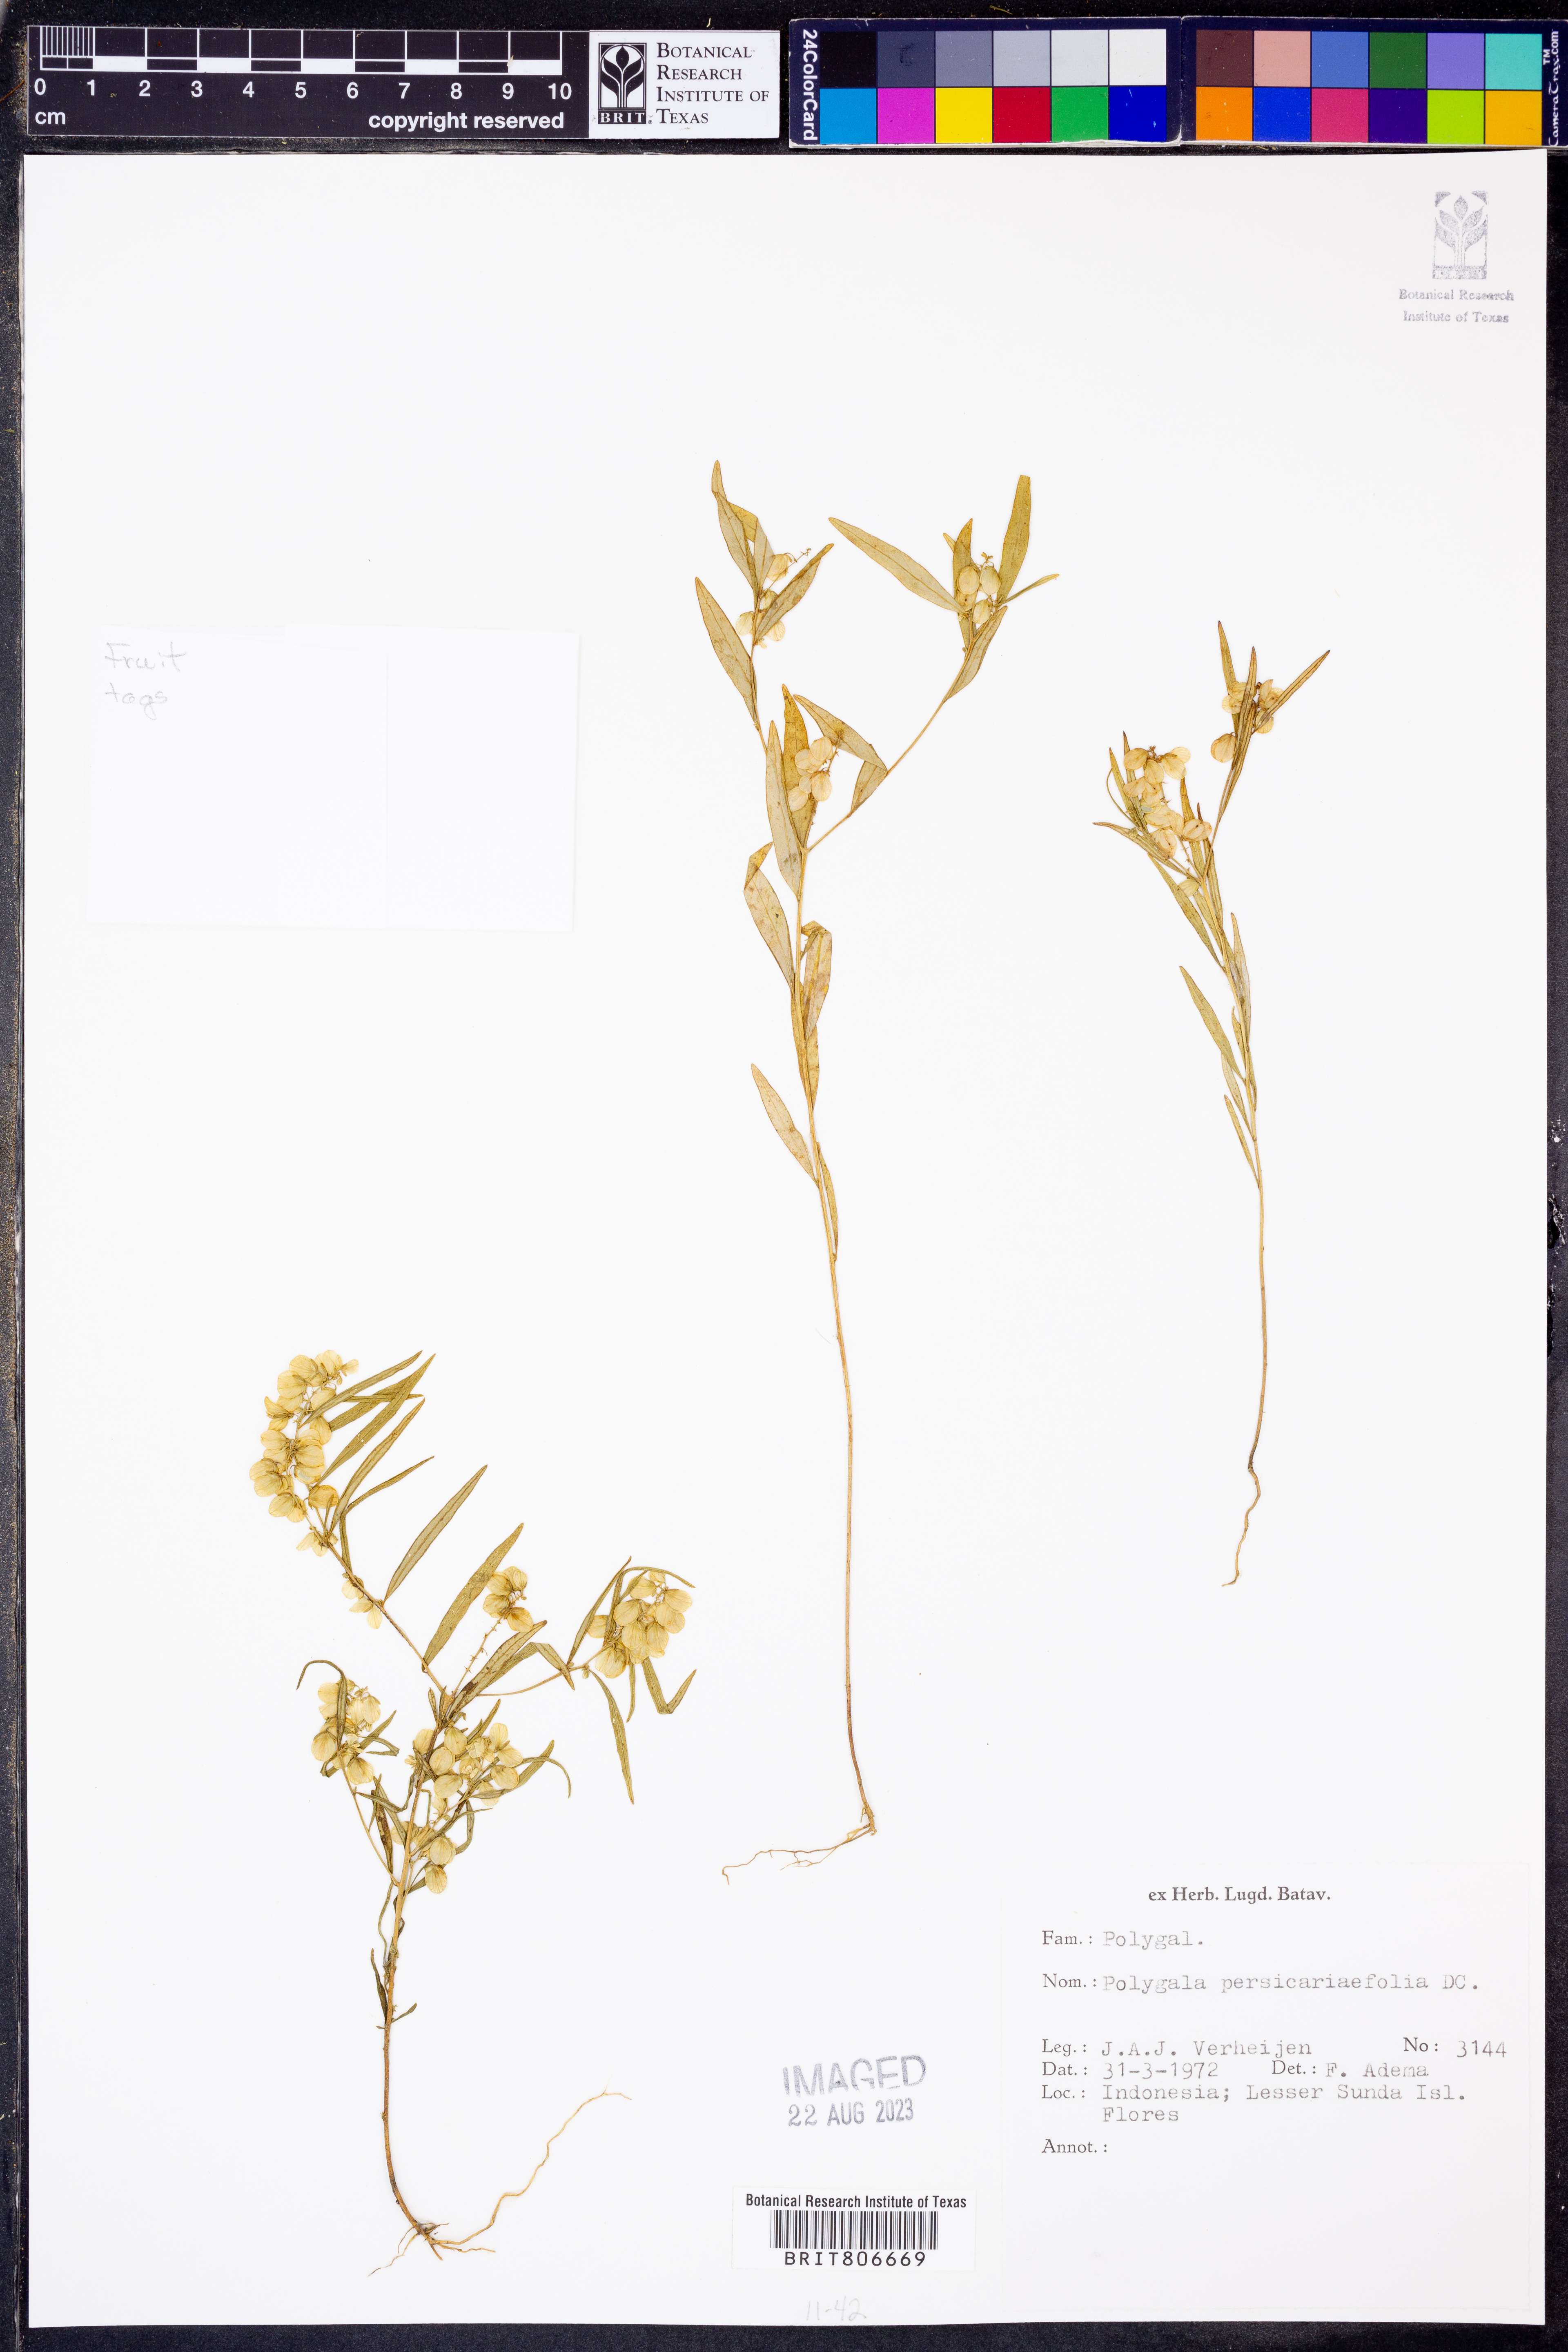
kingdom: Plantae
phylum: Tracheophyta
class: Magnoliopsida
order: Fabales
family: Polygalaceae
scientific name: Polygalaceae
